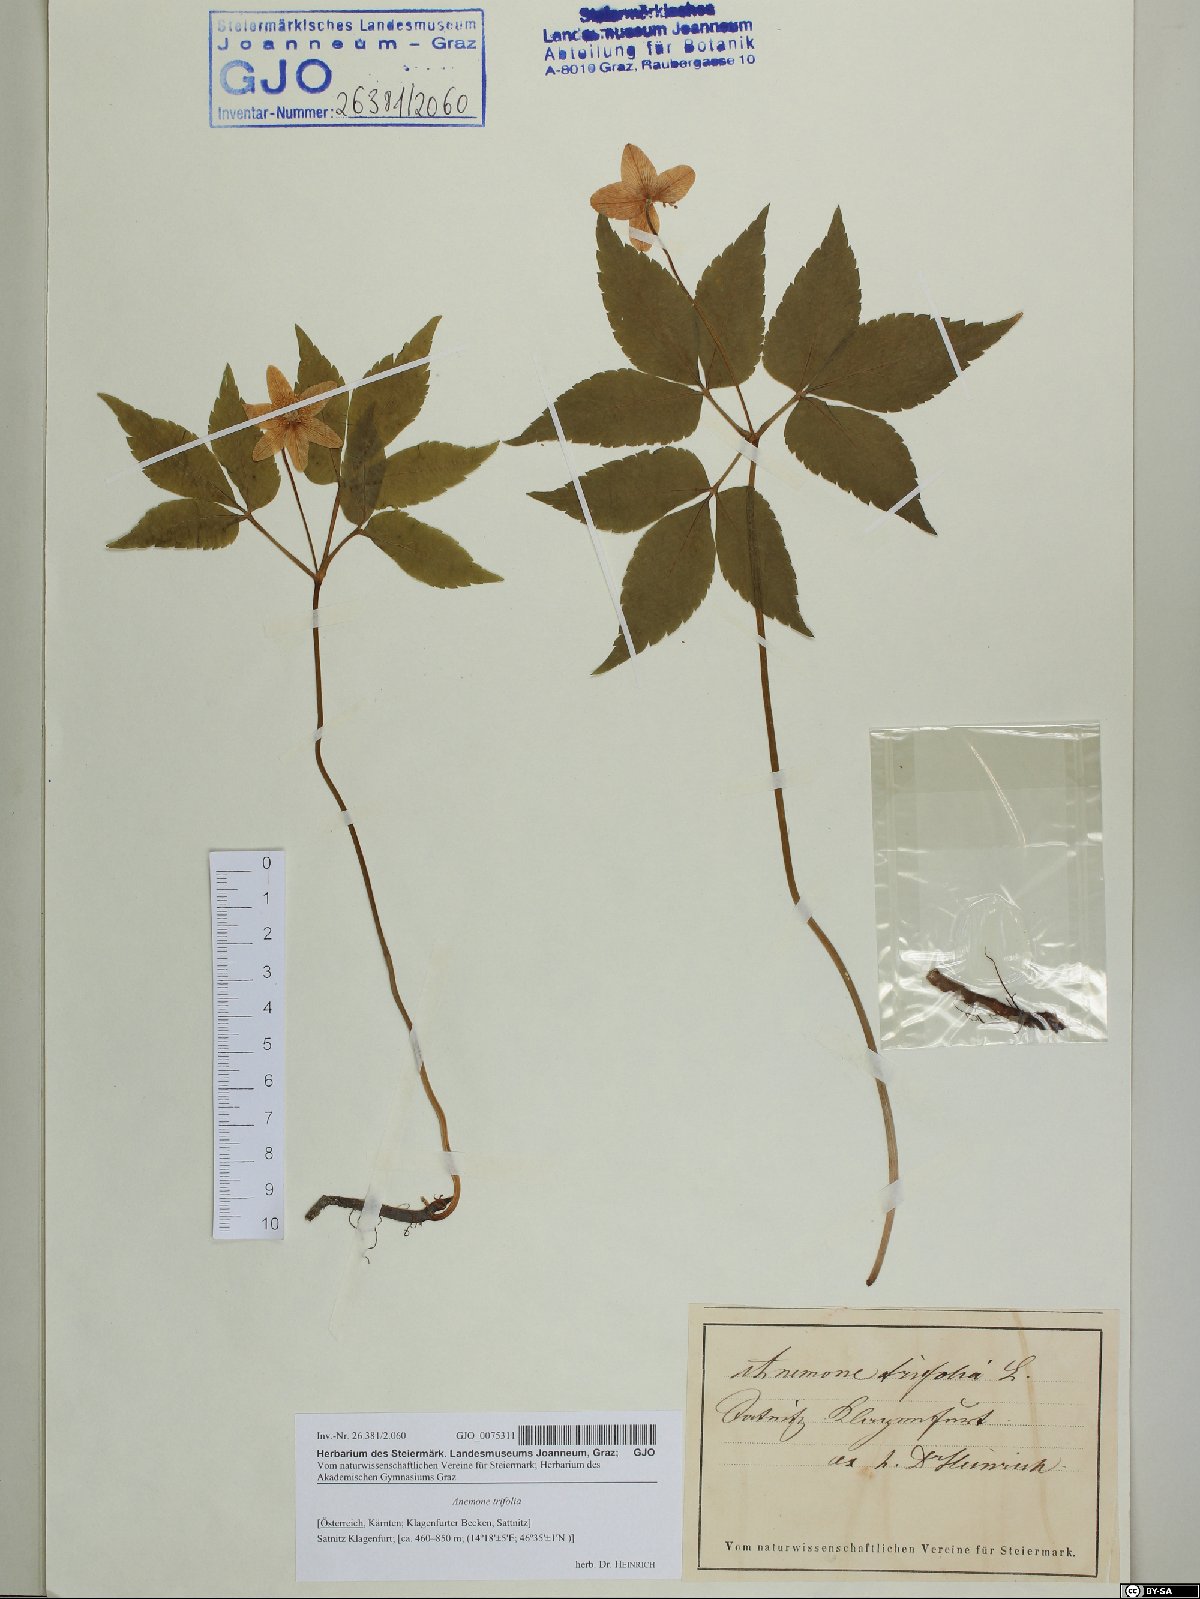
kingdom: Plantae
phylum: Tracheophyta
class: Magnoliopsida
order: Ranunculales
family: Ranunculaceae
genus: Anemone
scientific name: Anemone trifolia
